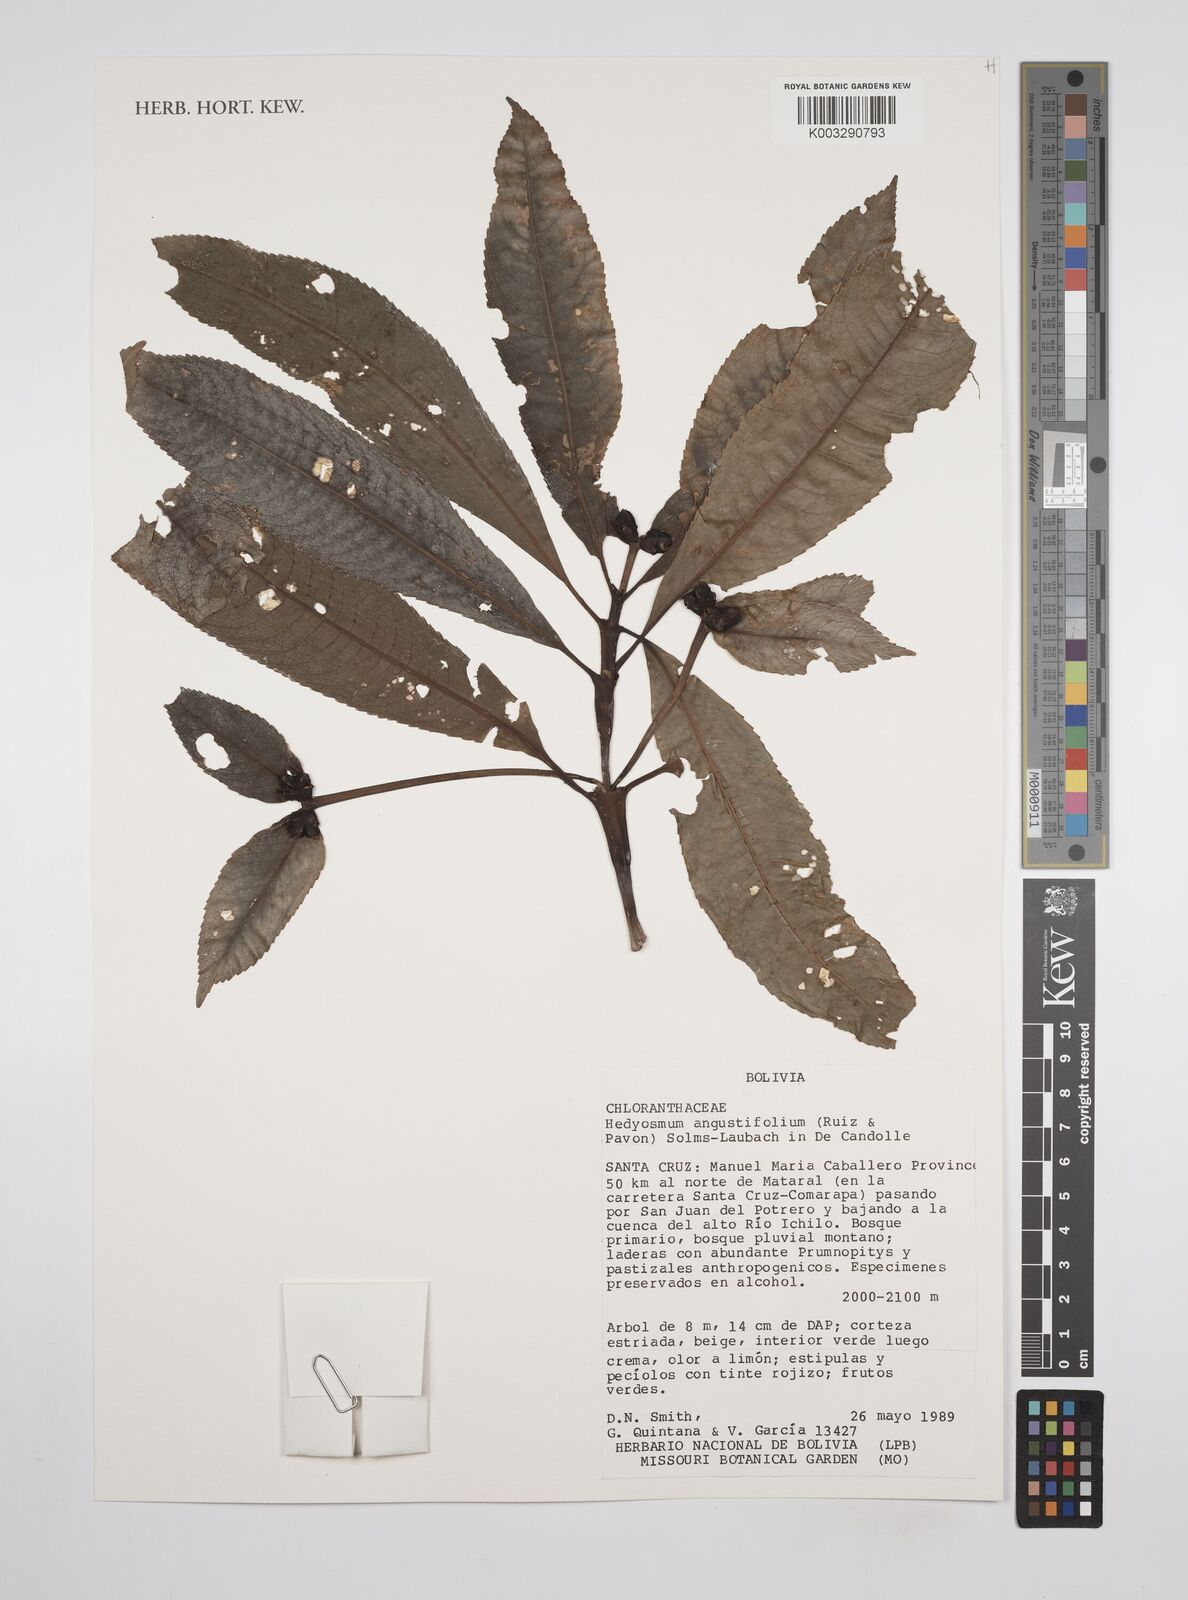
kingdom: Plantae
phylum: Tracheophyta
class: Magnoliopsida
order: Chloranthales
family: Chloranthaceae
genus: Hedyosmum
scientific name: Hedyosmum angustifolium
